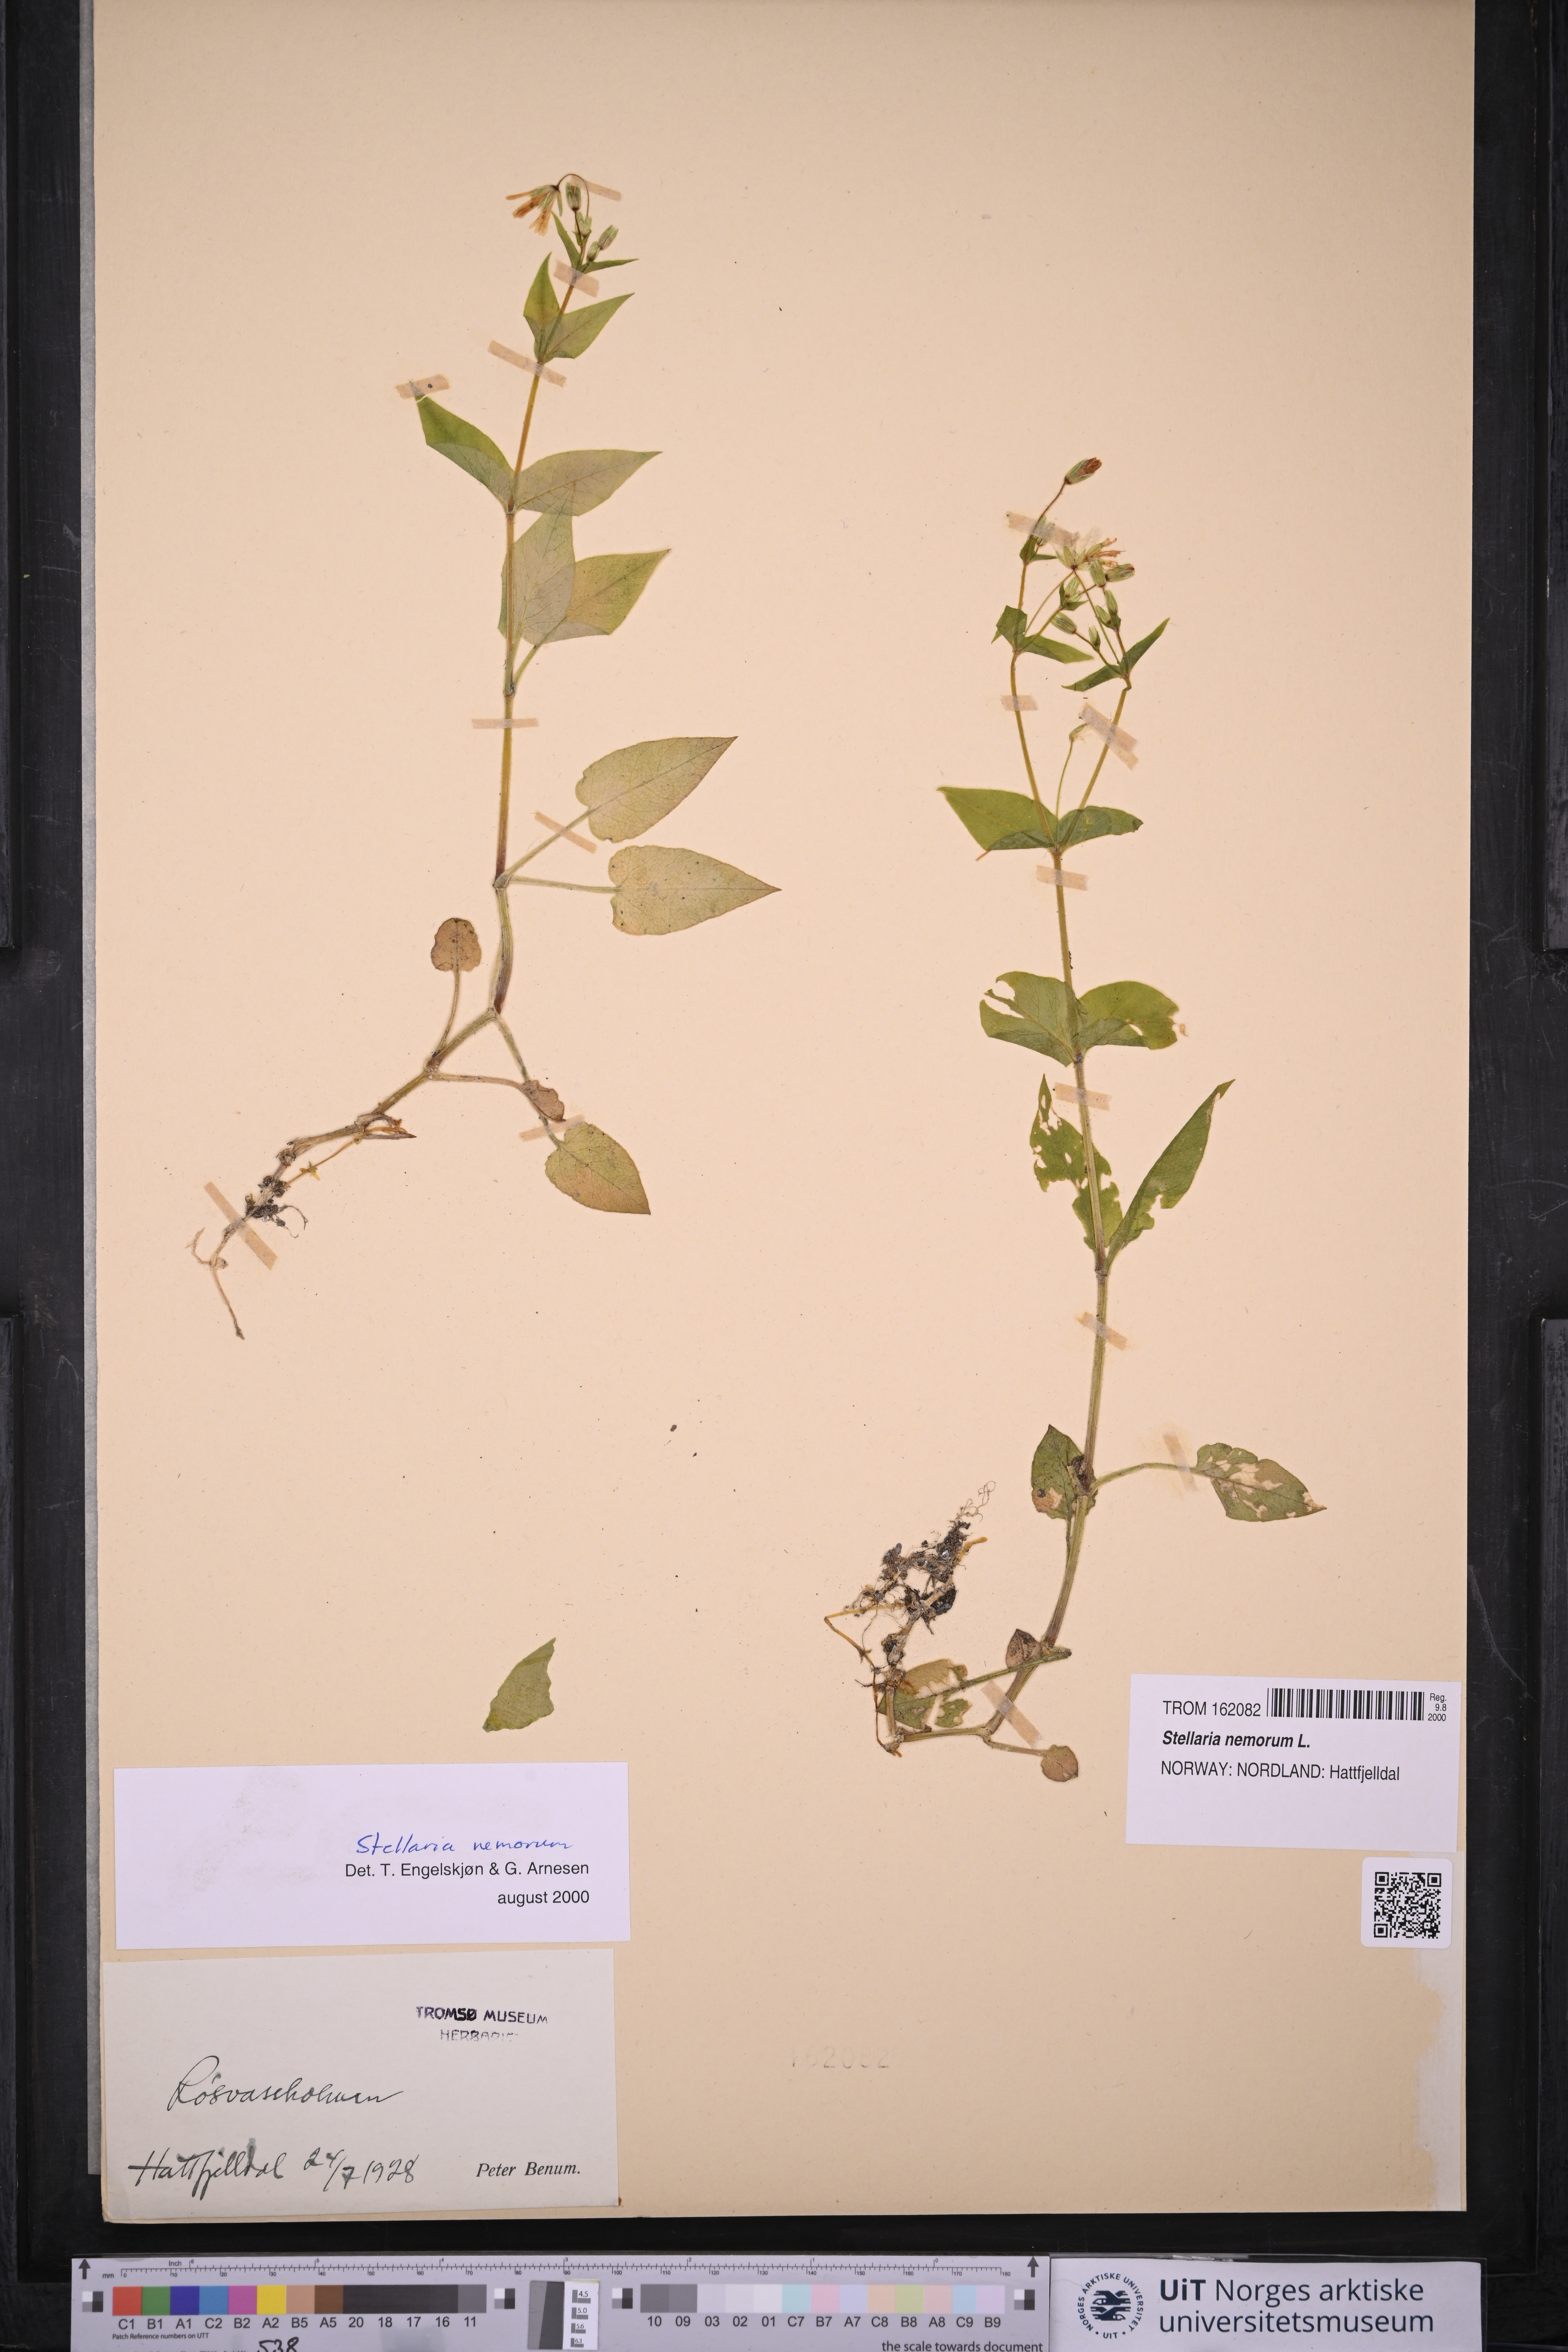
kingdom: Plantae
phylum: Tracheophyta
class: Magnoliopsida
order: Caryophyllales
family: Caryophyllaceae
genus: Stellaria
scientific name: Stellaria nemorum
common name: Wood stitchwort
